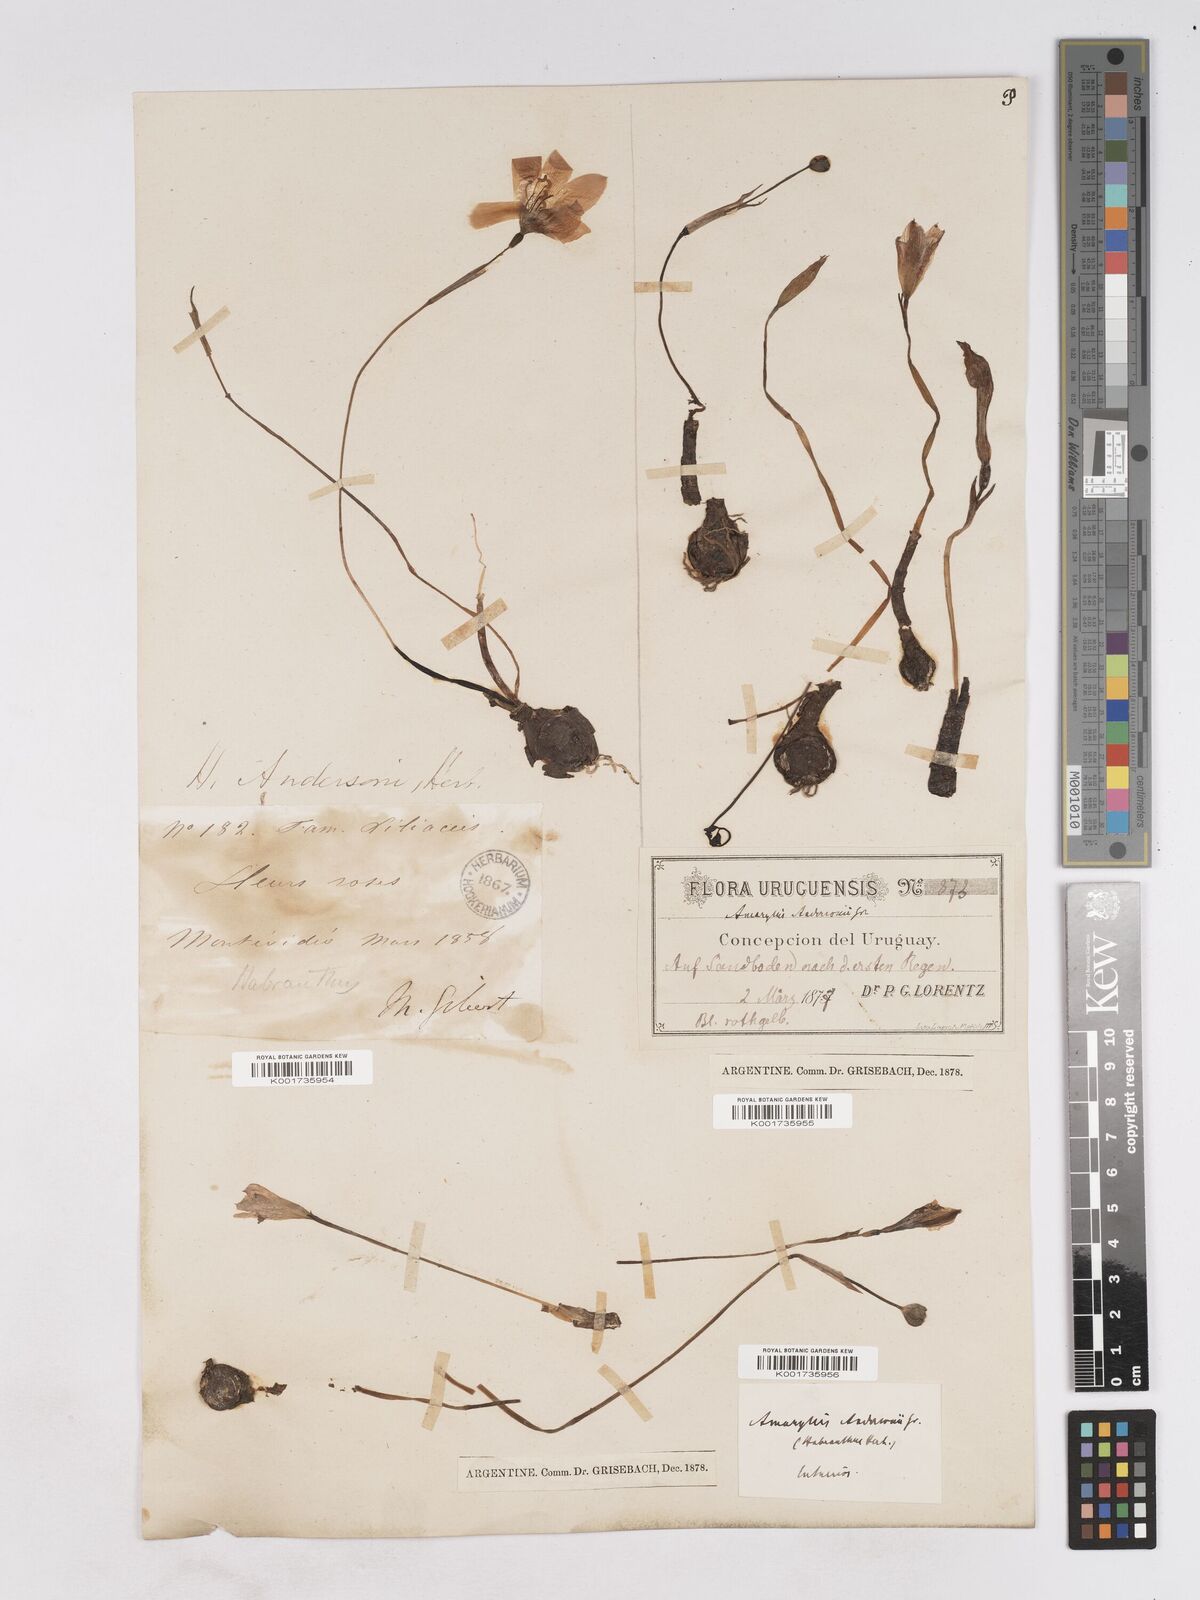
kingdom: Plantae
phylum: Tracheophyta
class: Liliopsida
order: Asparagales
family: Amaryllidaceae
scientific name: Amaryllidaceae
